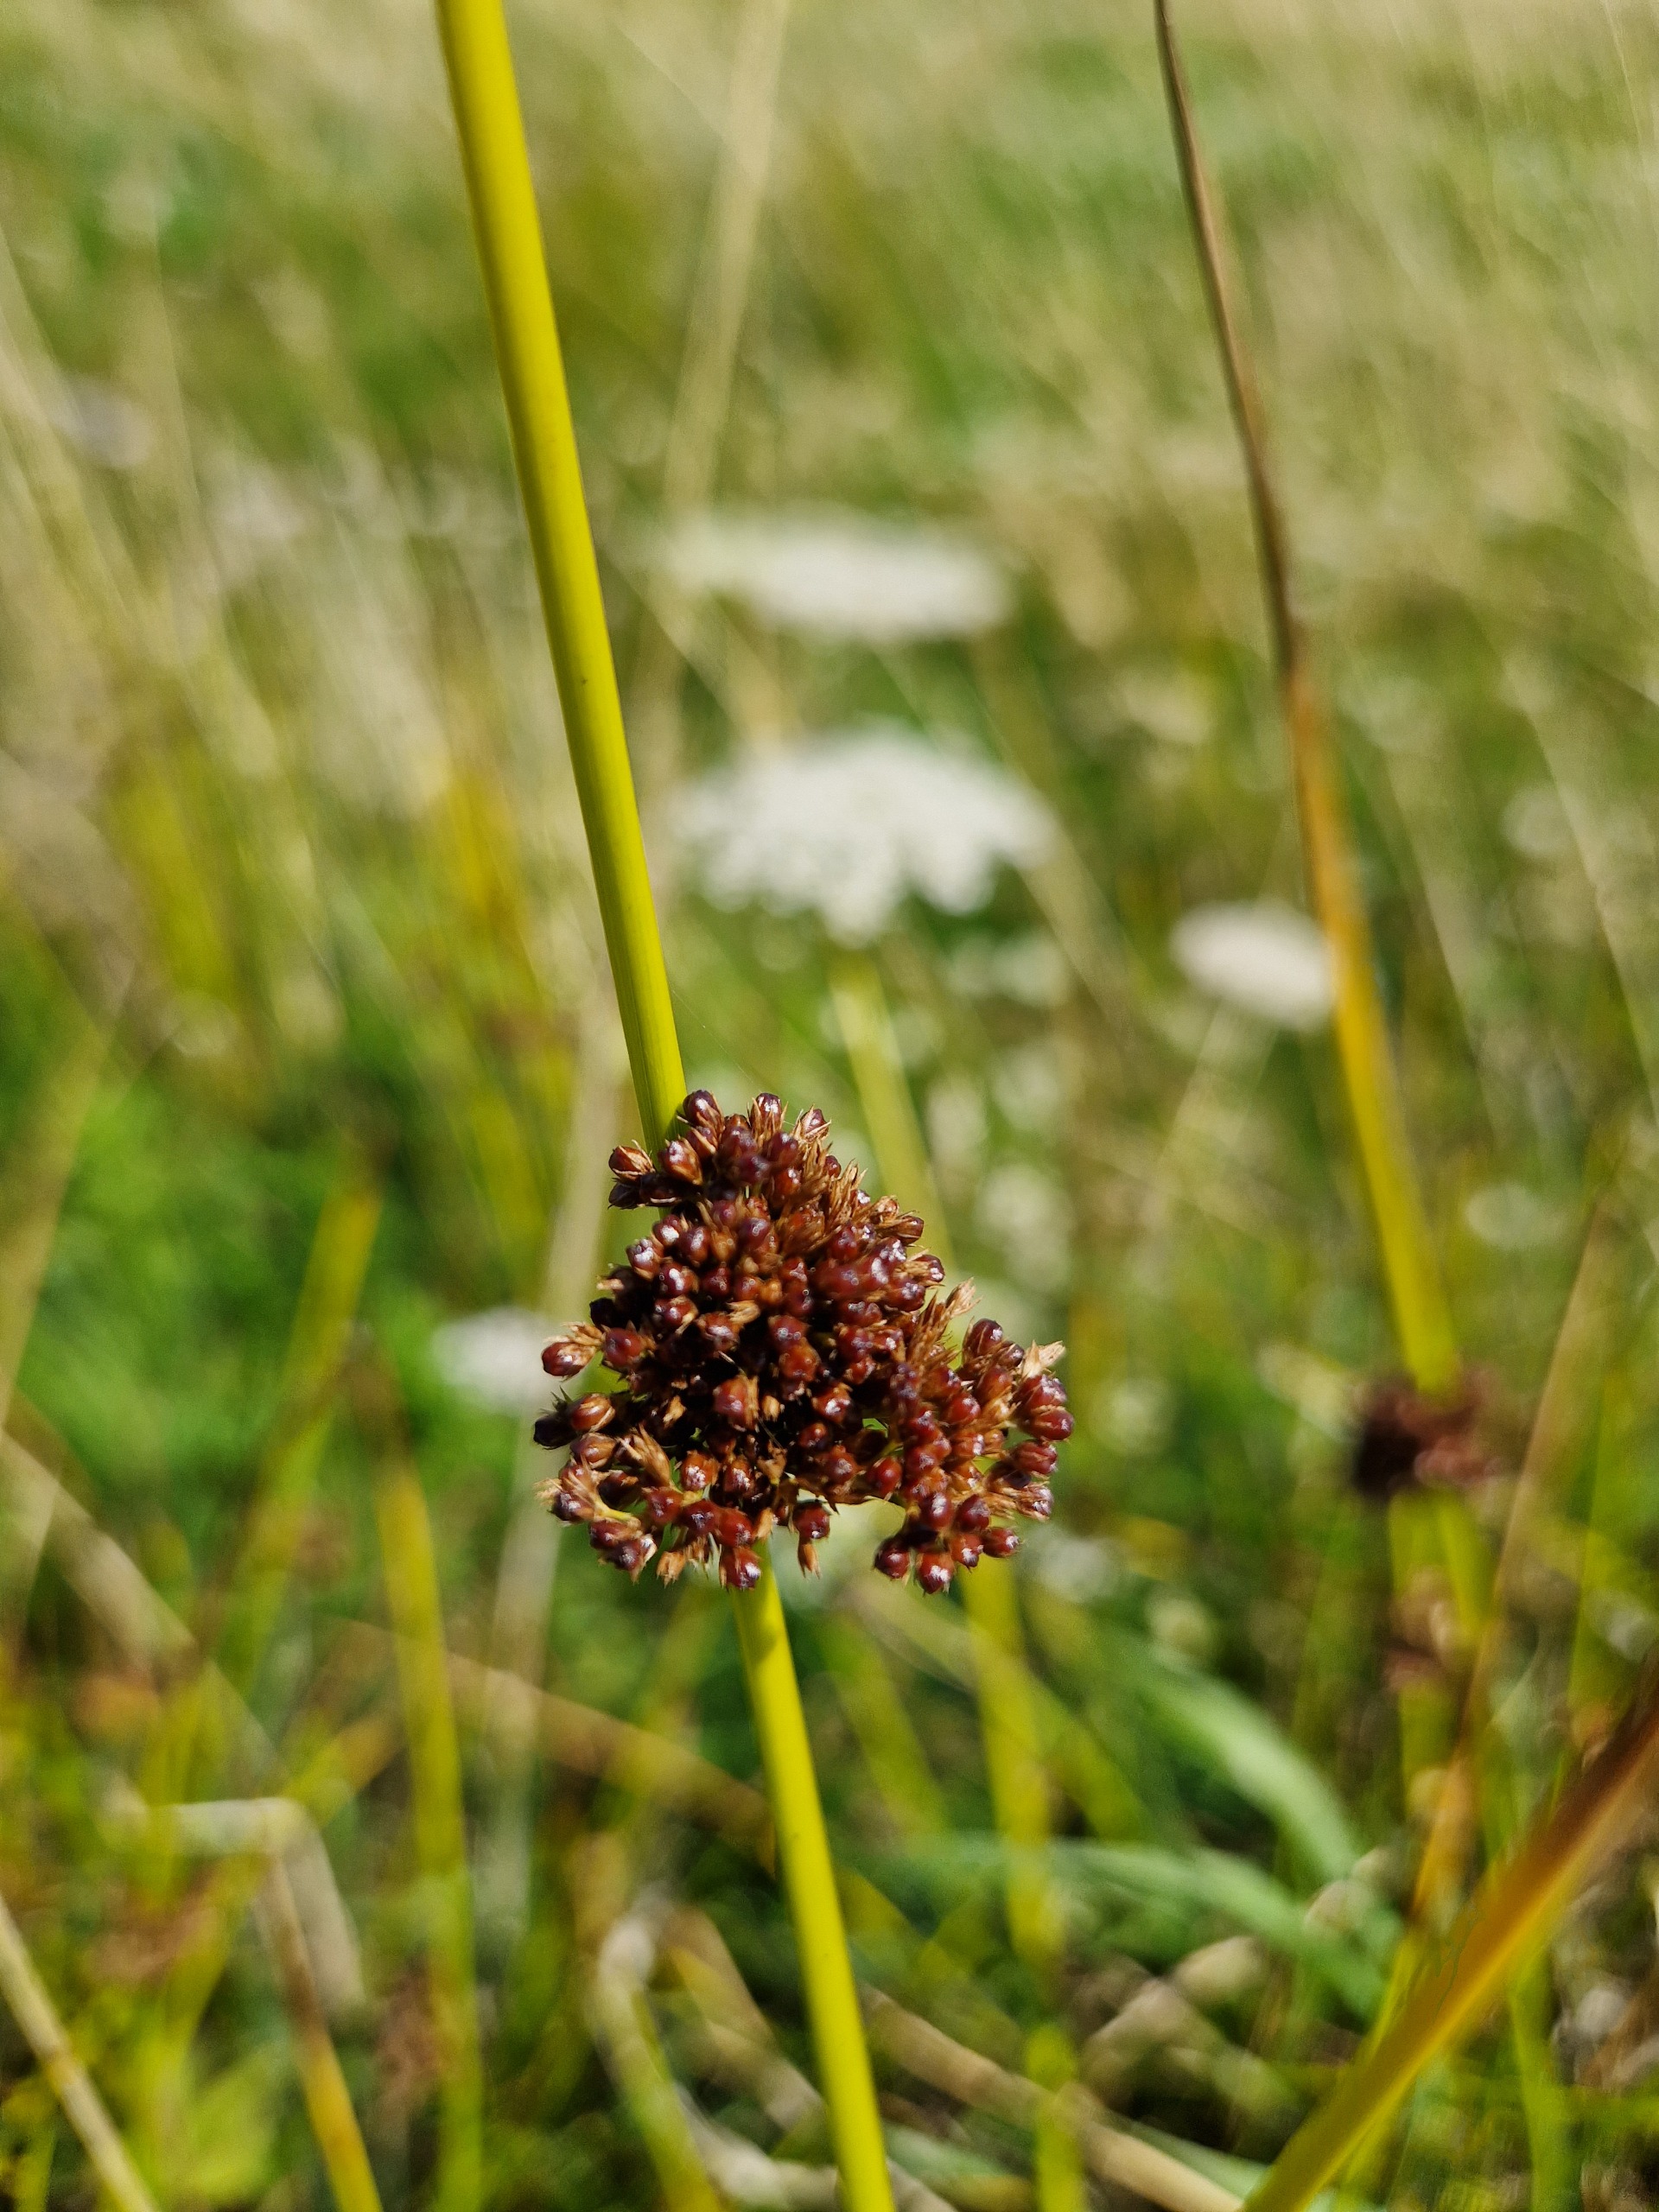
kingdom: Plantae
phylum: Tracheophyta
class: Liliopsida
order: Poales
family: Juncaceae
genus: Juncus
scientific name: Juncus effusus
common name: Lyse-siv
